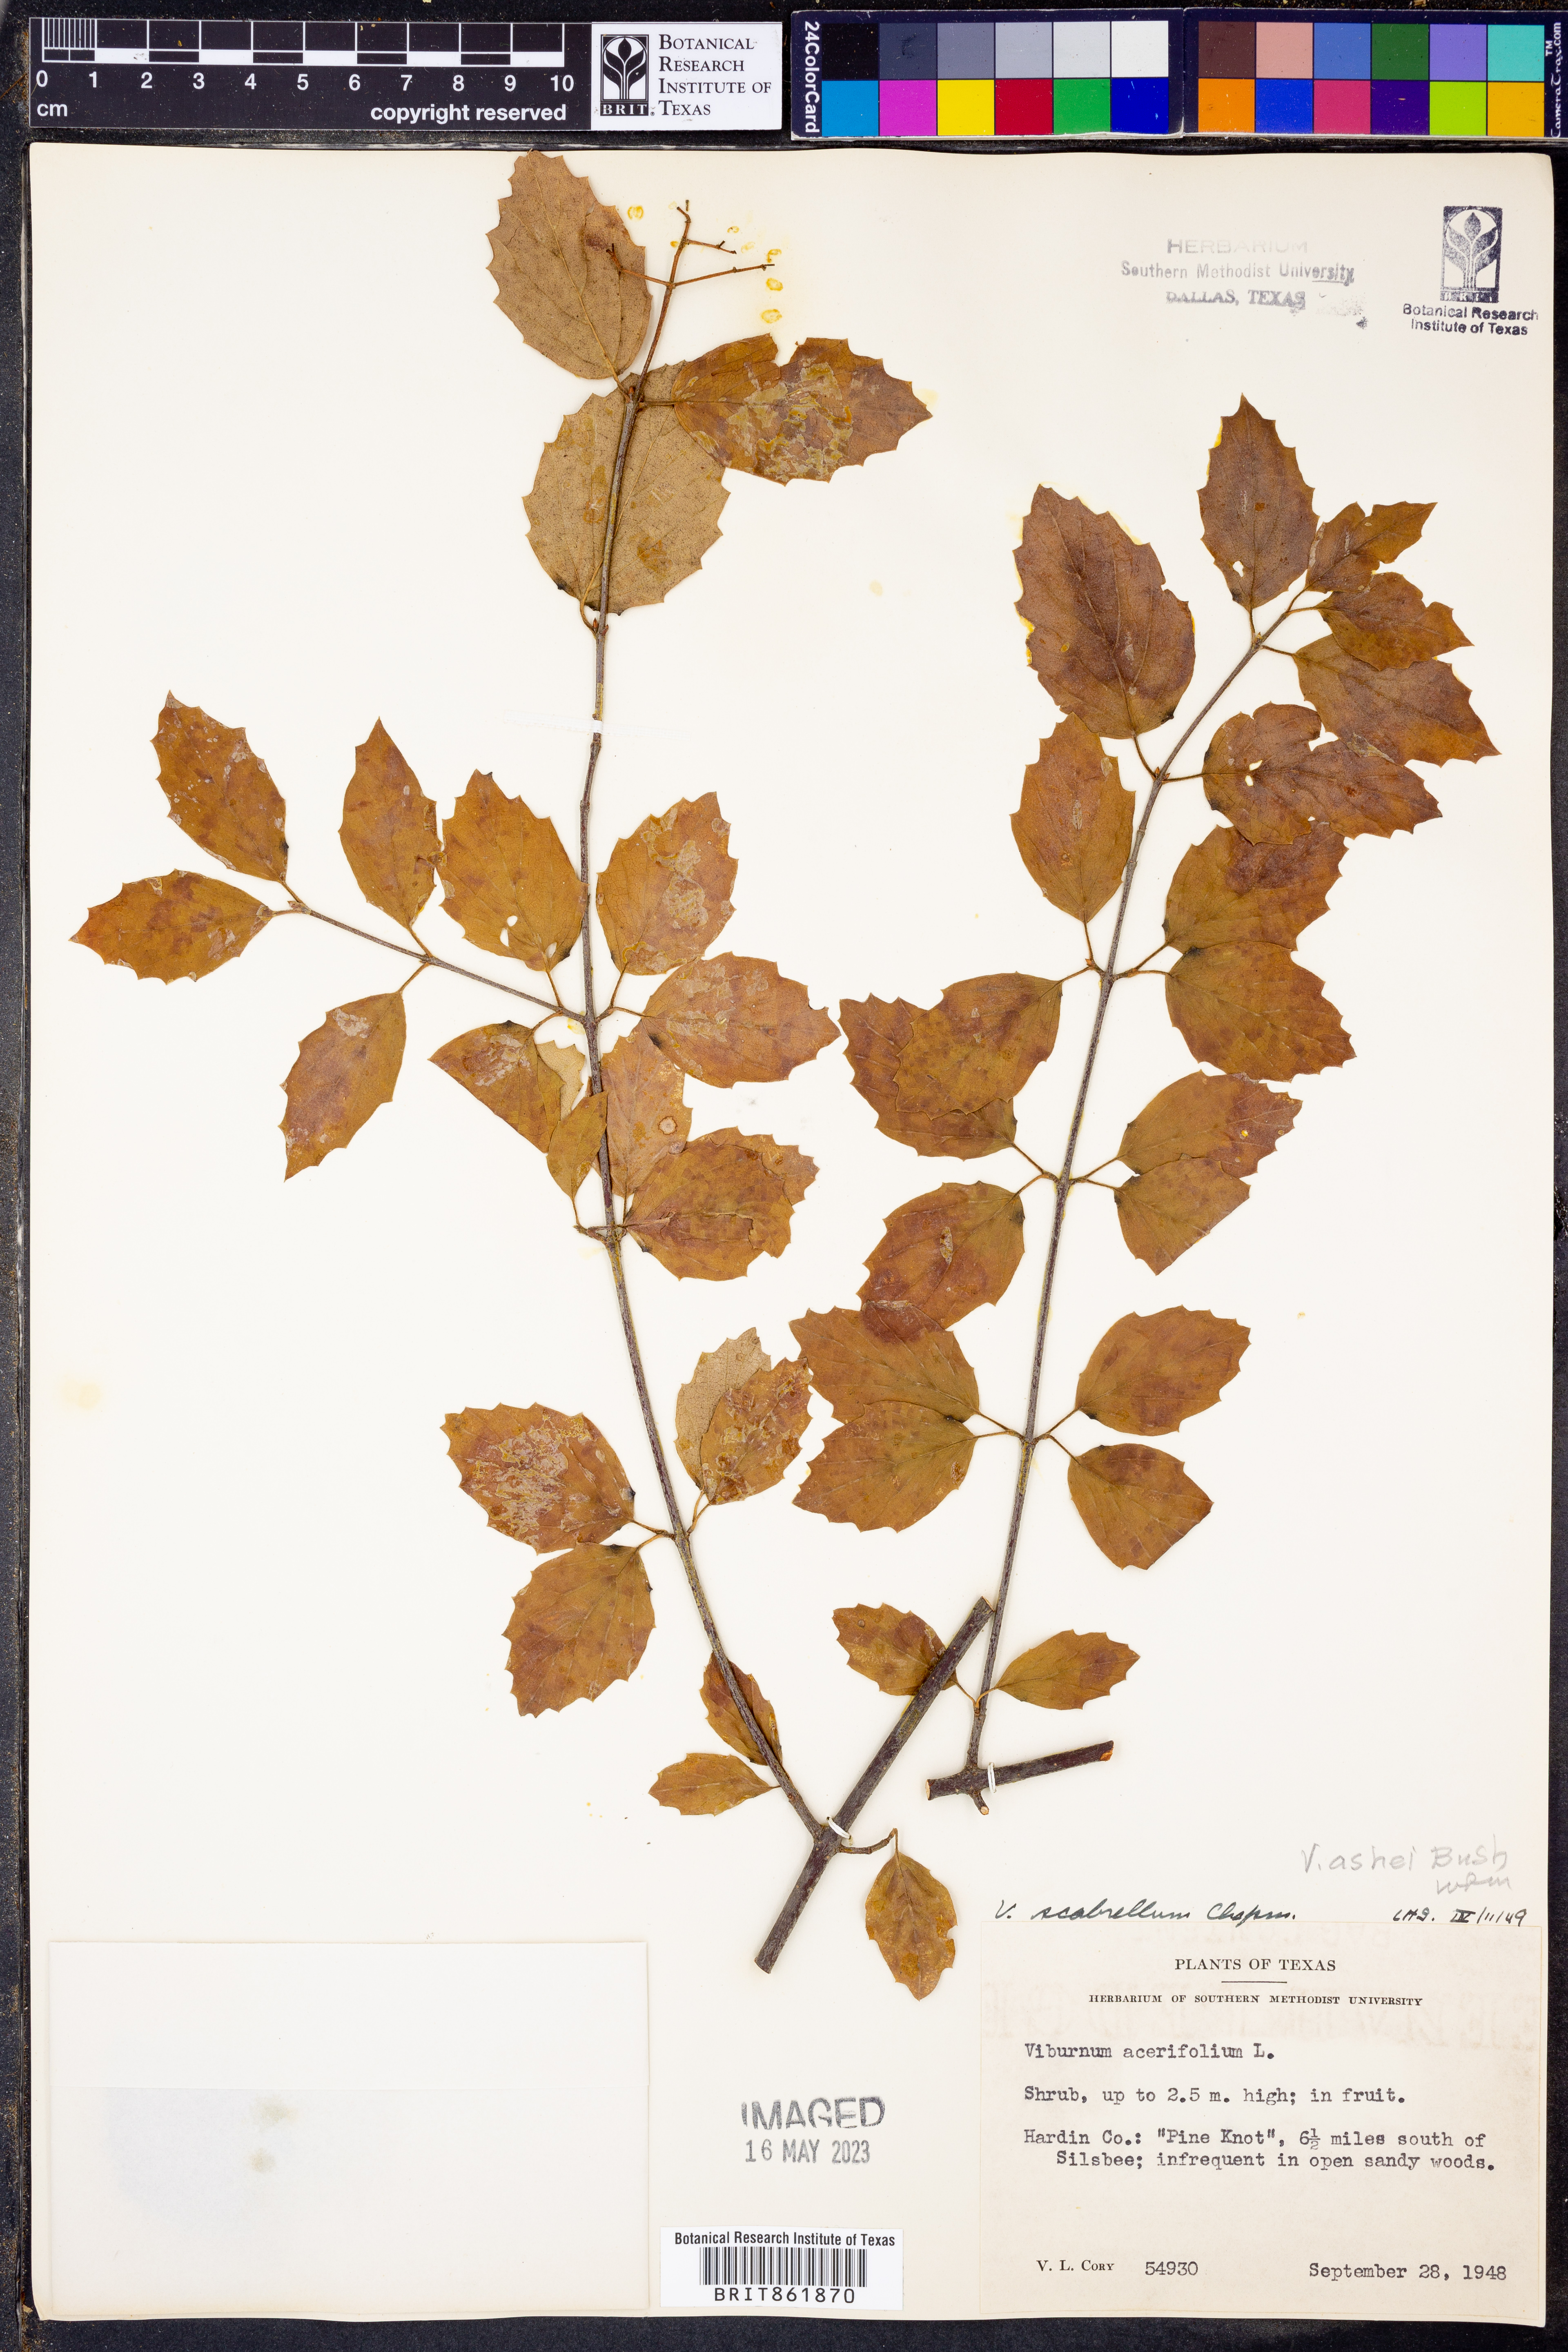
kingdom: Plantae
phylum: Tracheophyta
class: Magnoliopsida
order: Dipsacales
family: Viburnaceae
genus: Viburnum
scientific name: Viburnum recognitum
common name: Northern arrow-wood
